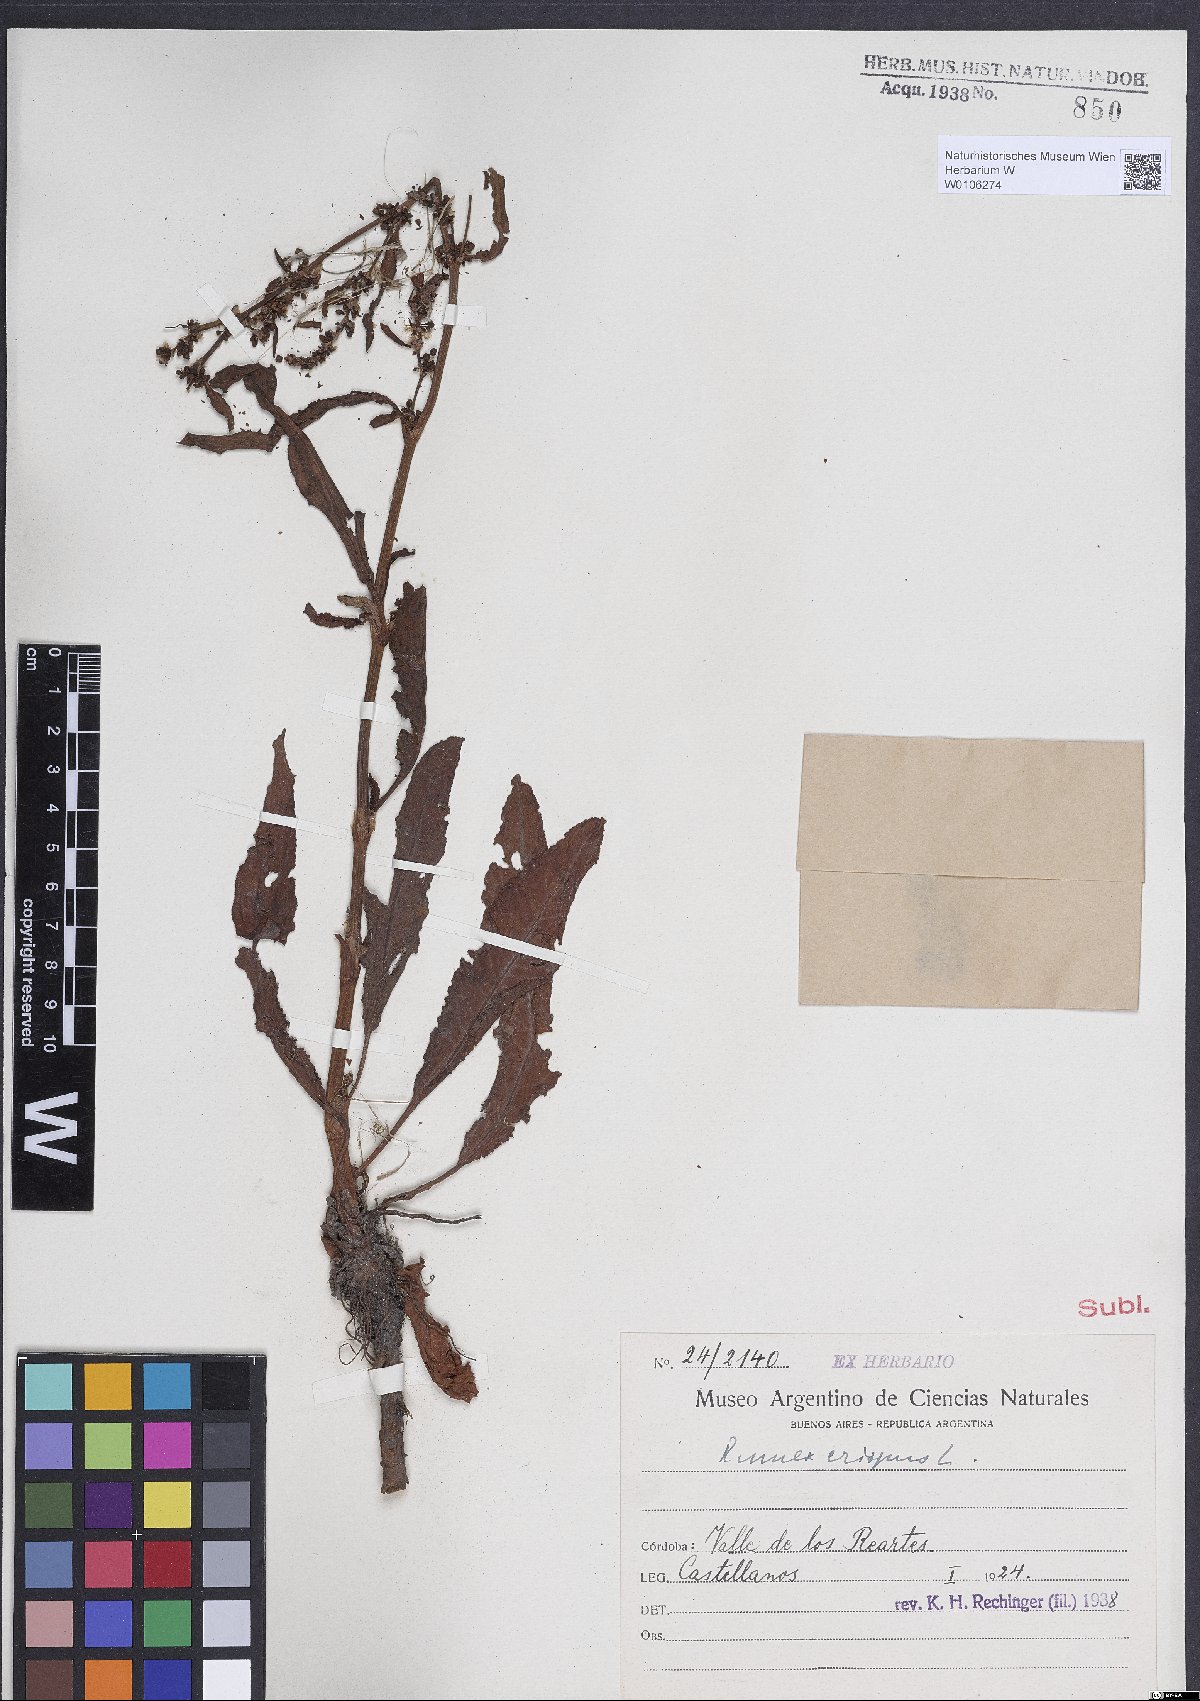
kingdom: Plantae
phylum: Tracheophyta
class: Magnoliopsida
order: Caryophyllales
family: Polygonaceae
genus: Rumex
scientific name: Rumex crispus
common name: Curled dock
